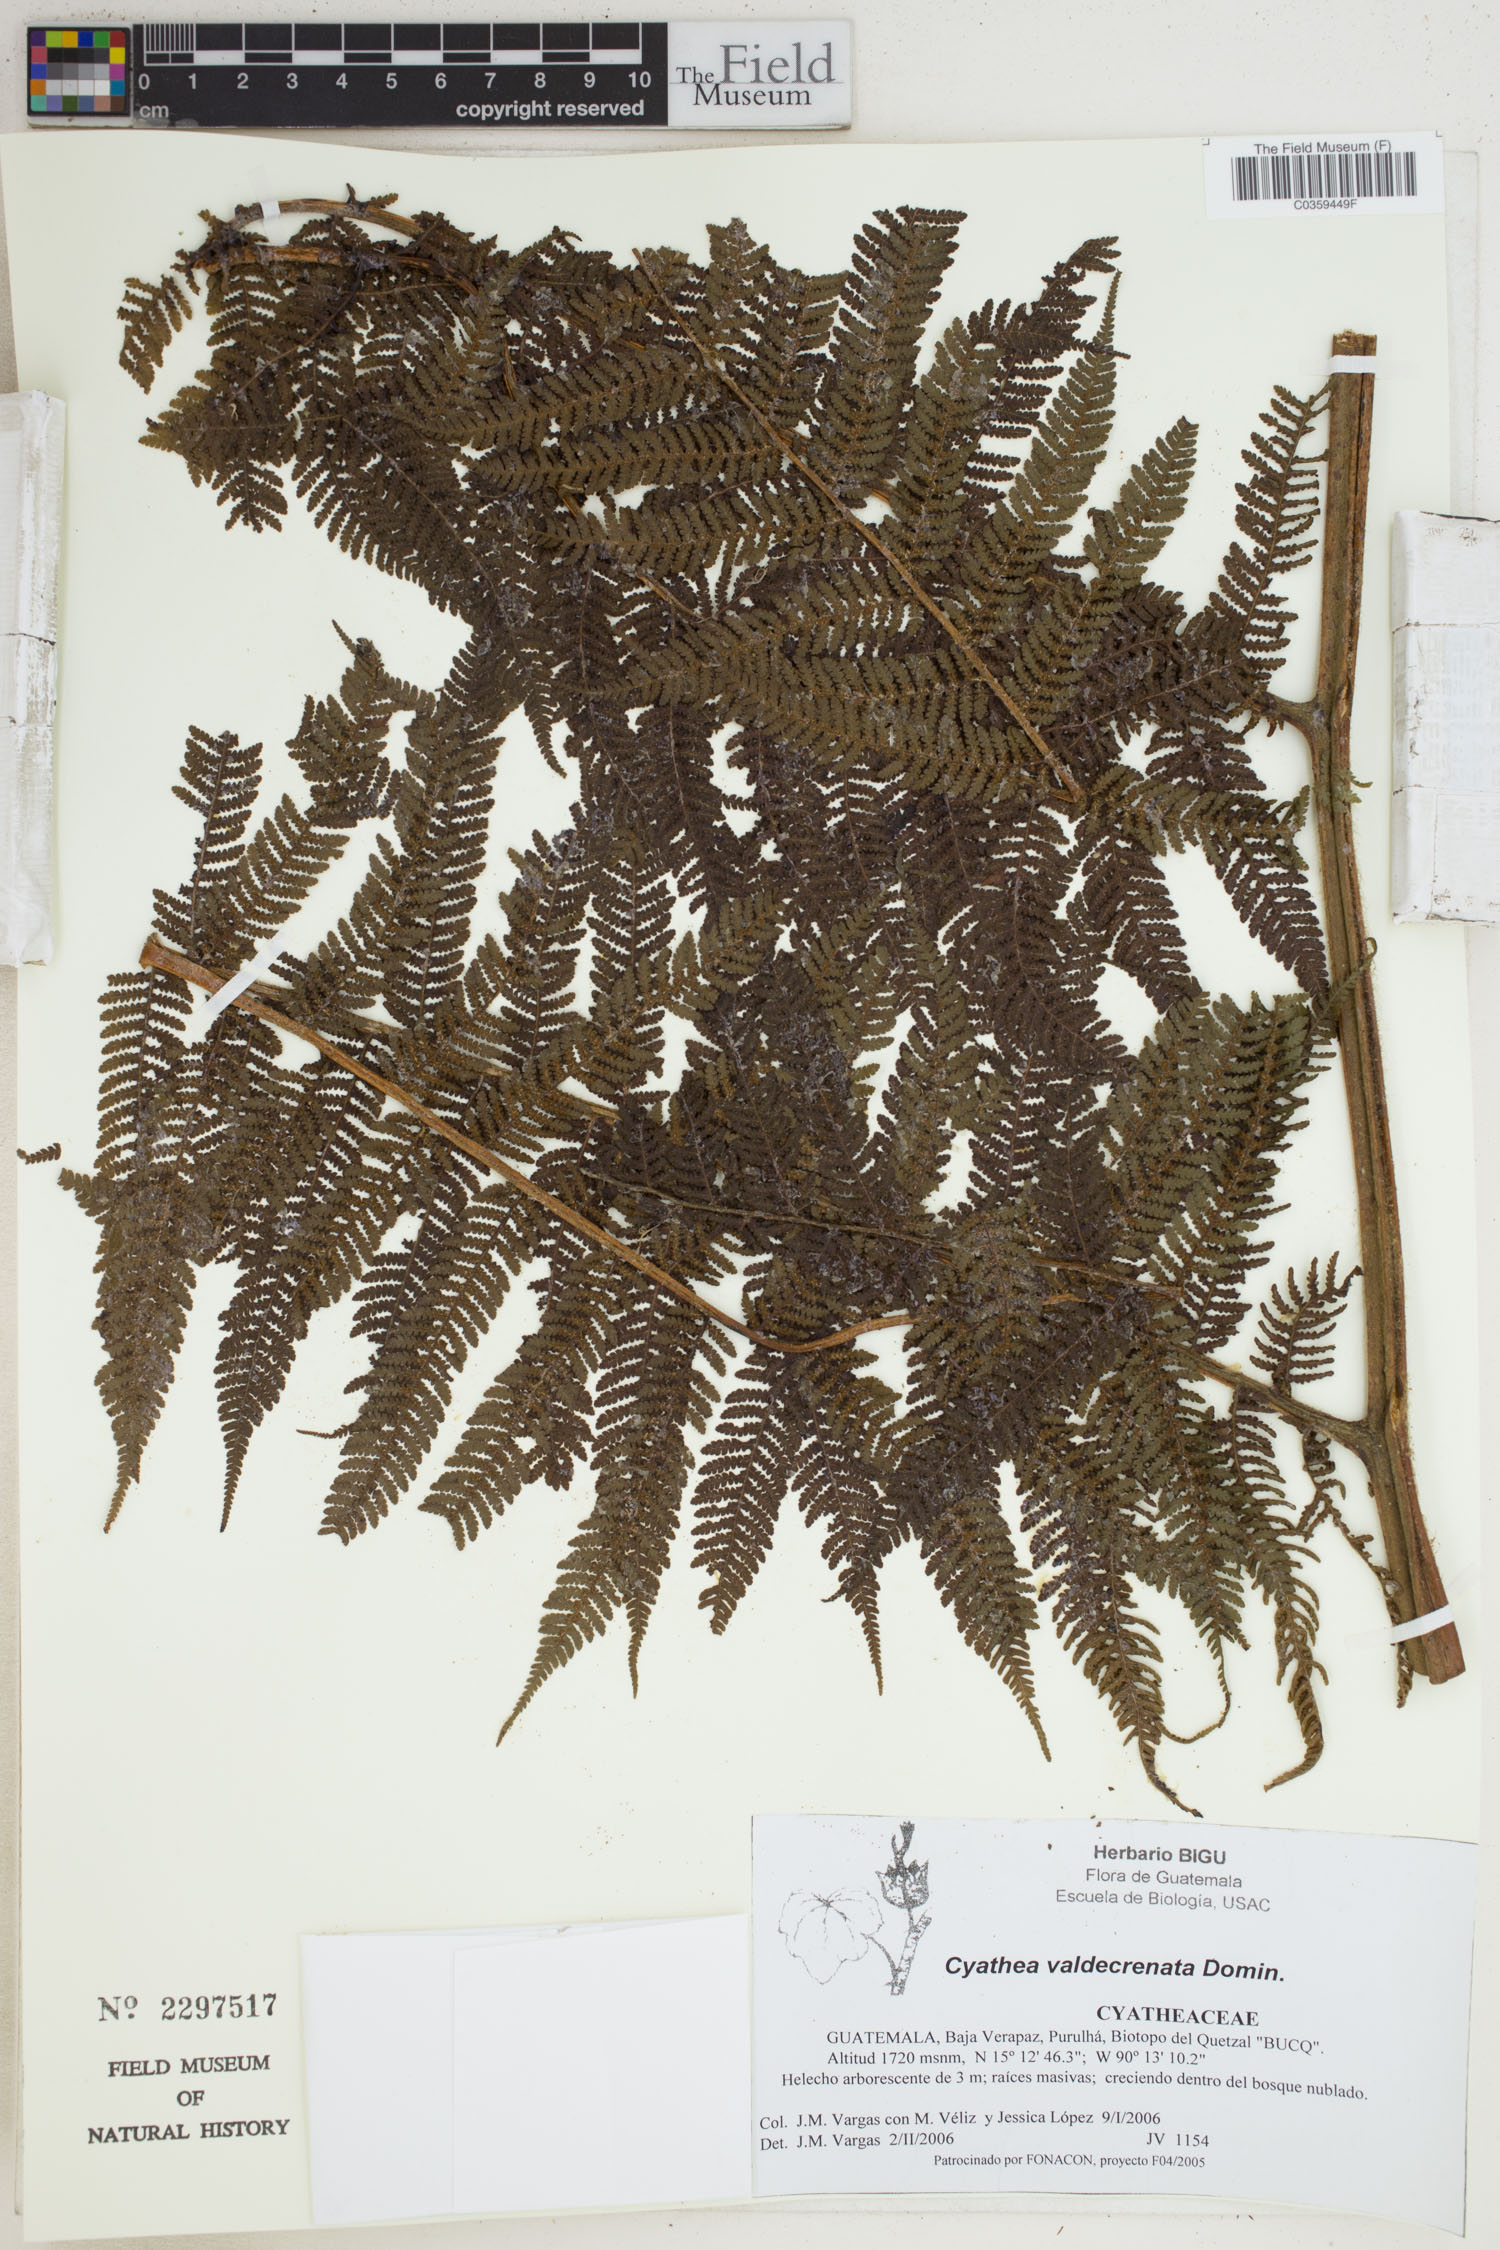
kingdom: Plantae
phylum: Tracheophyta
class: Polypodiopsida
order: Cyatheales
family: Cyatheaceae
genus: Cyathea
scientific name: Cyathea godmanii
